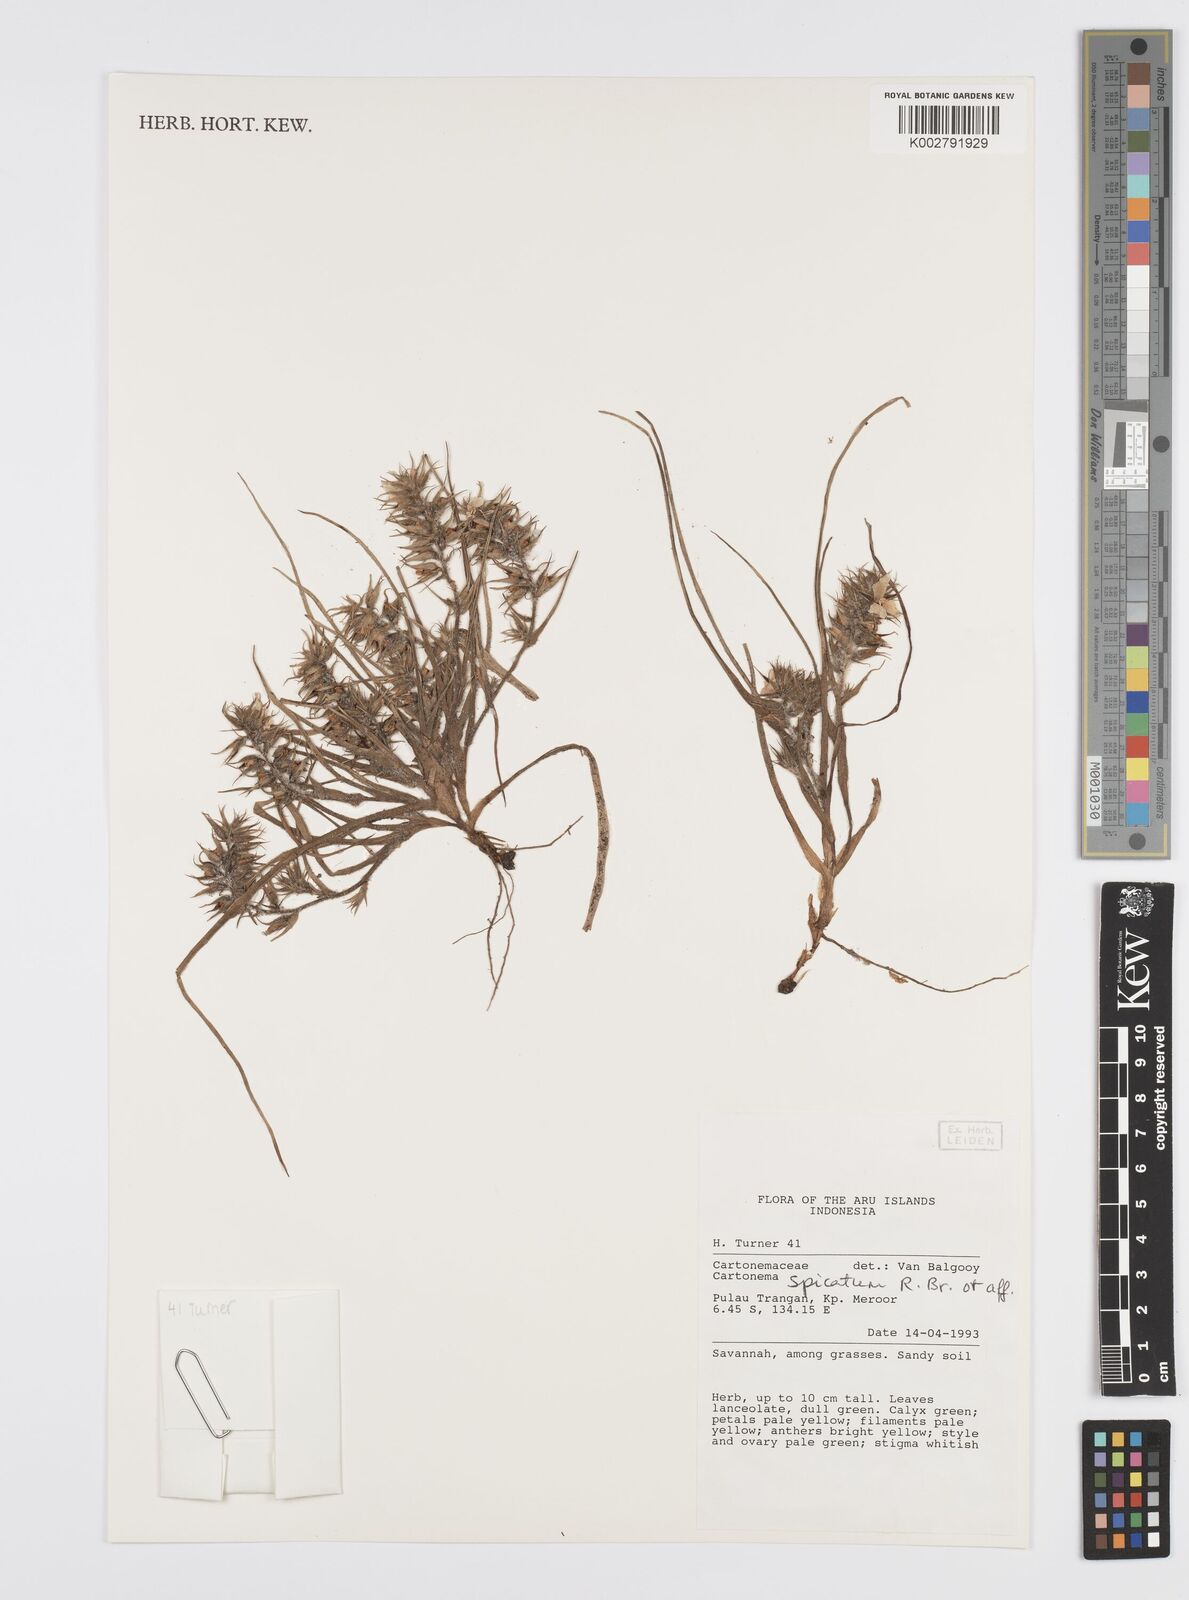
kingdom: Plantae
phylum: Tracheophyta
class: Liliopsida
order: Commelinales
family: Commelinaceae
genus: Cartonema
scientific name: Cartonema spicatum
